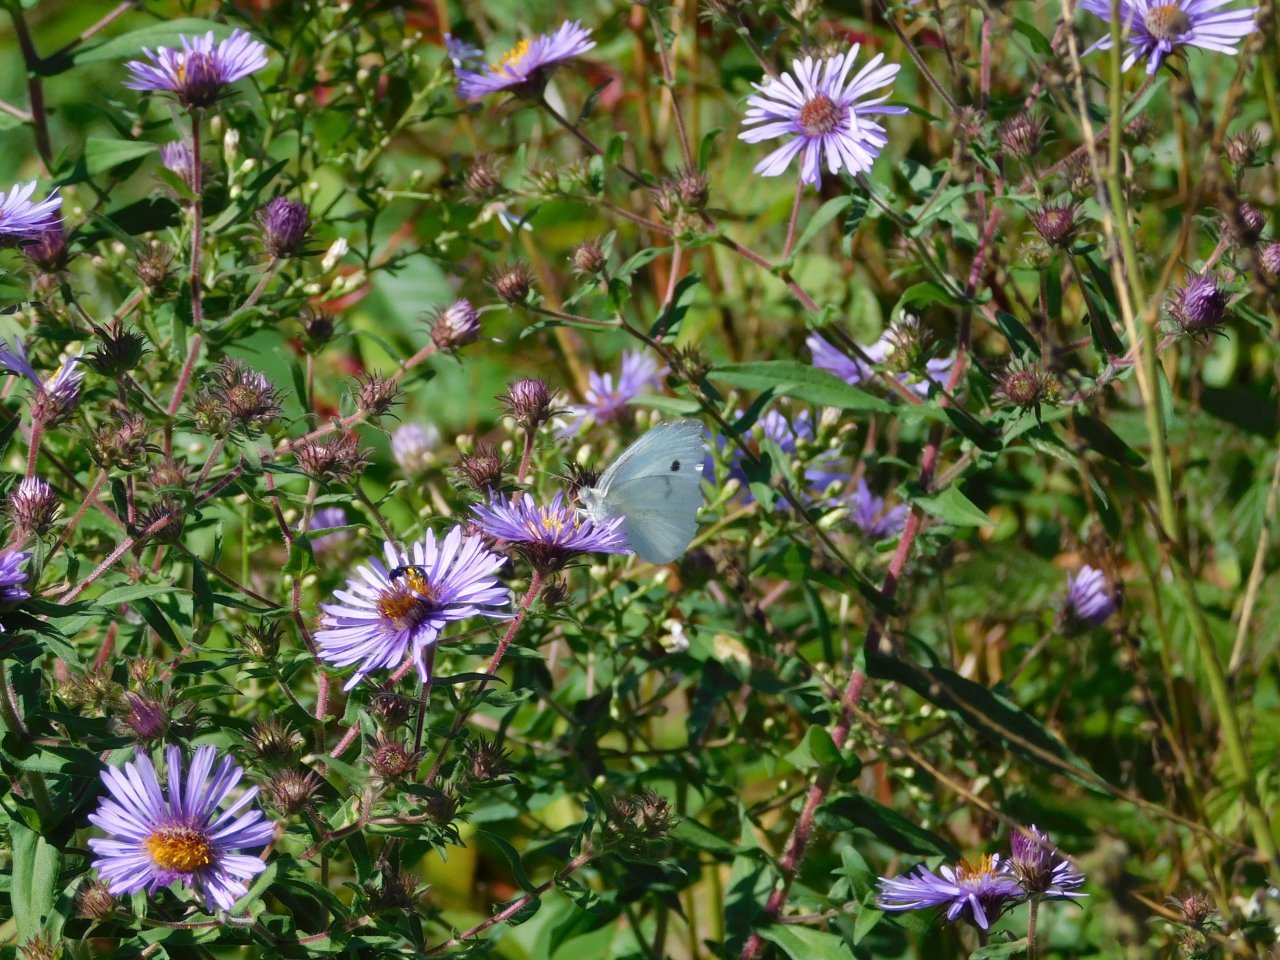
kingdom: Animalia
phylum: Arthropoda
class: Insecta
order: Lepidoptera
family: Pieridae
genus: Pieris
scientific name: Pieris rapae
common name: Cabbage White
